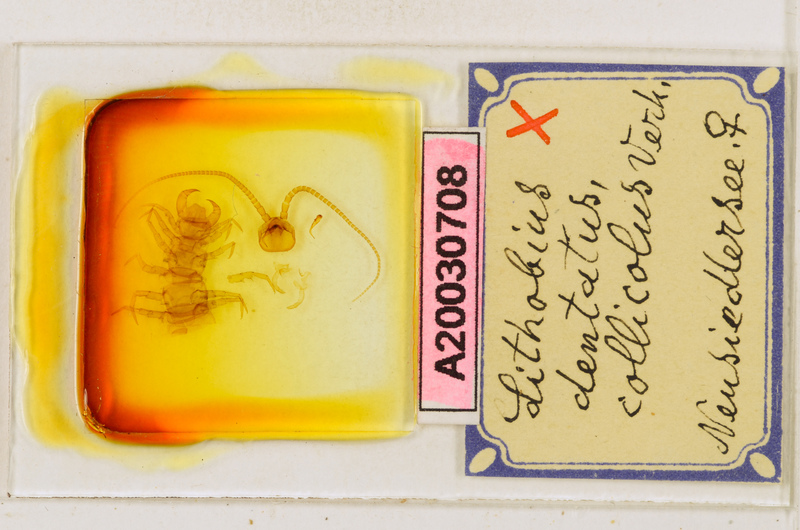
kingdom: Animalia
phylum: Arthropoda
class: Chilopoda
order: Lithobiomorpha
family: Lithobiidae
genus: Lithobius
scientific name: Lithobius dentatus
